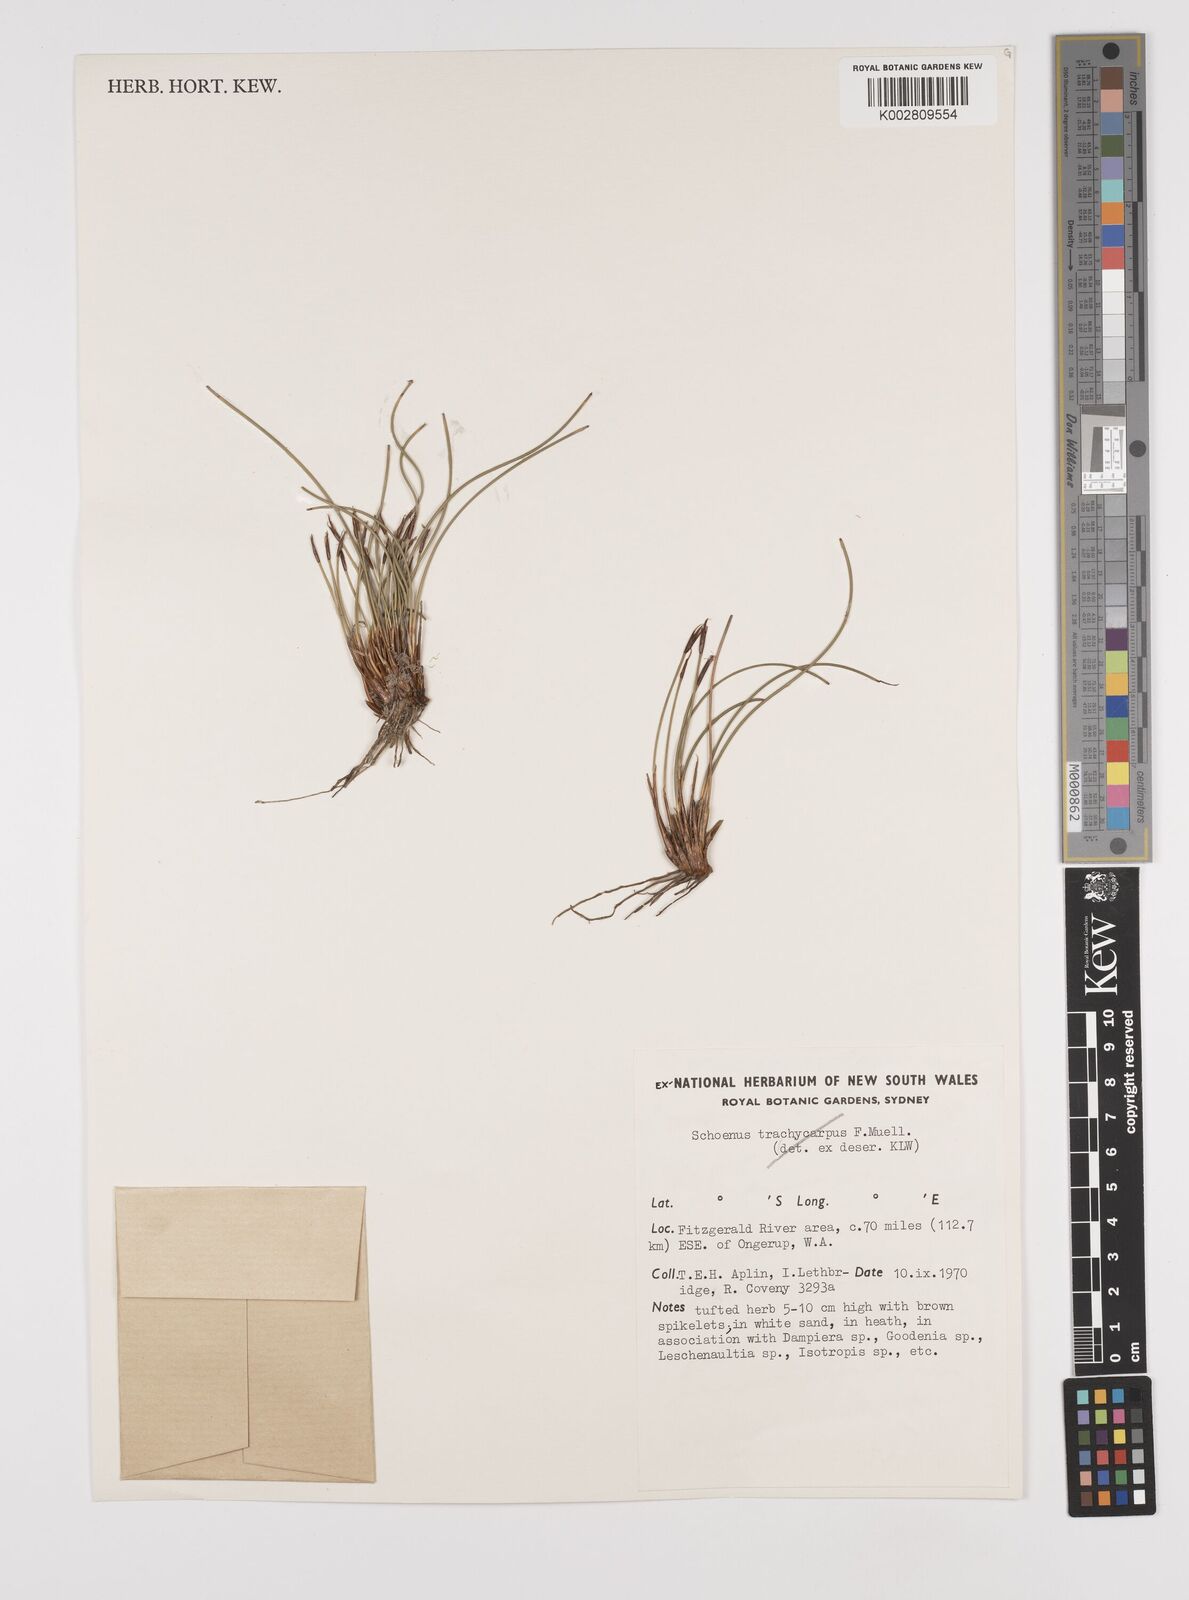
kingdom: Plantae
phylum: Tracheophyta
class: Liliopsida
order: Poales
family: Cyperaceae
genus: Schoenus
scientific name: Schoenus
